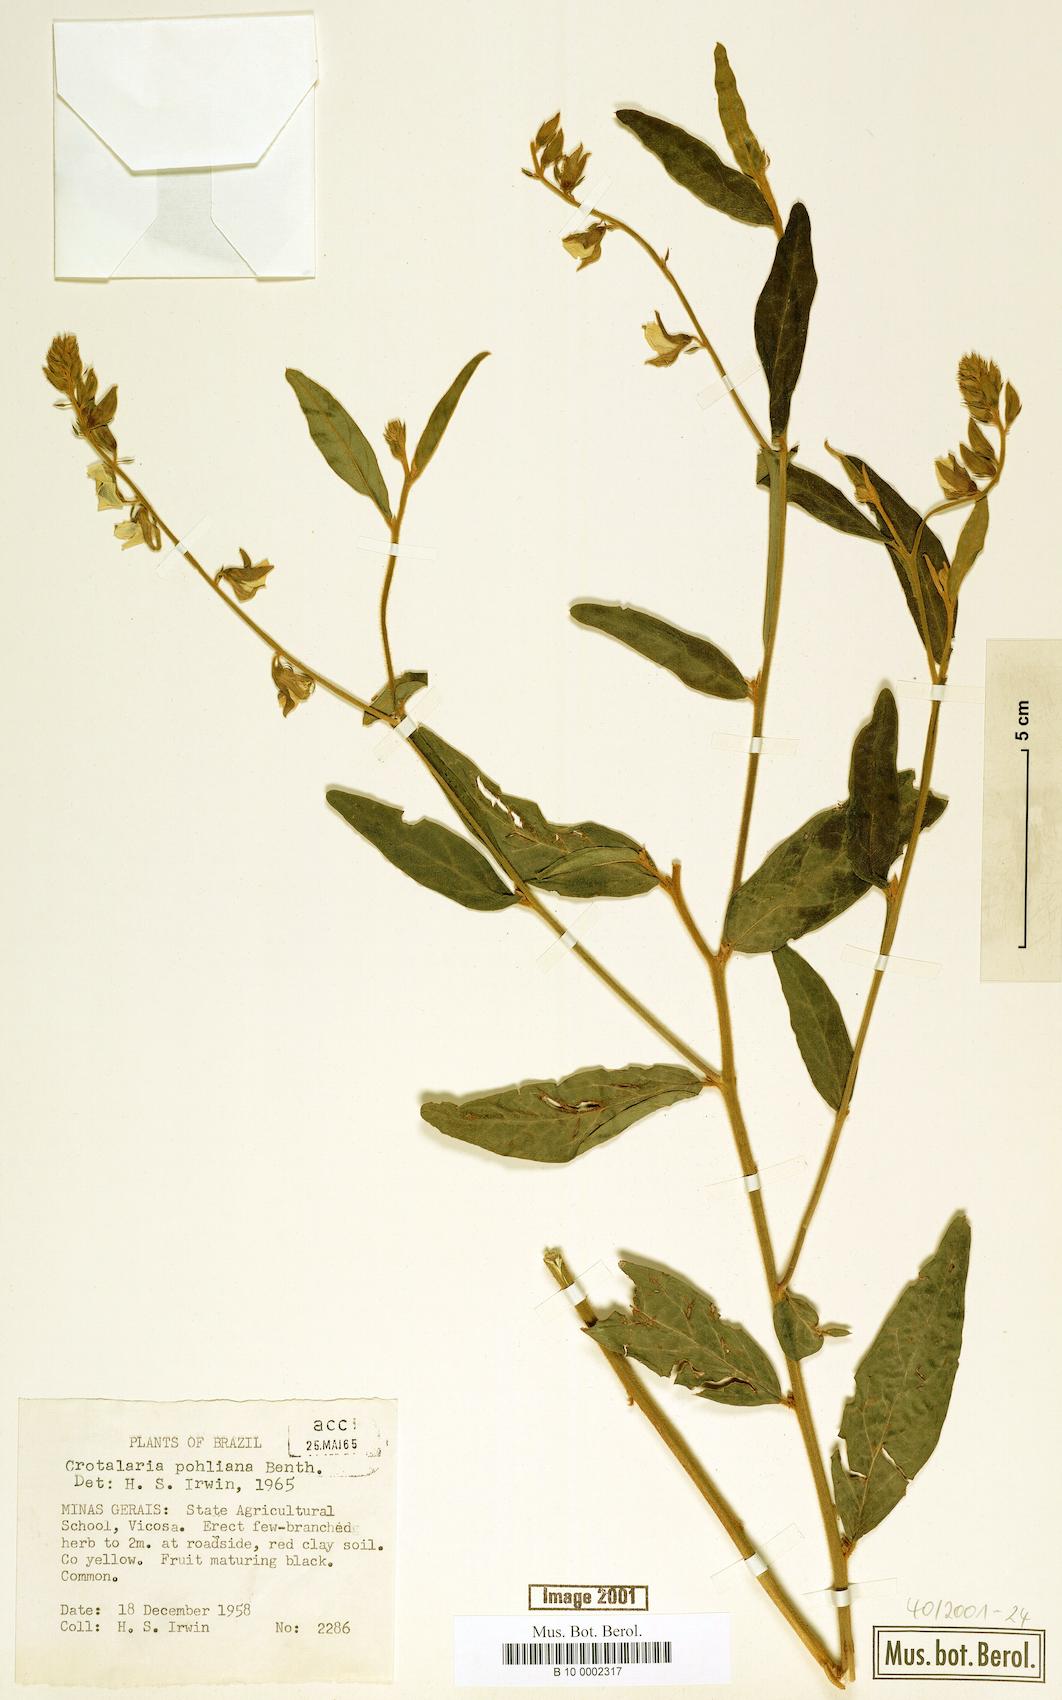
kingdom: Plantae
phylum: Tracheophyta
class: Magnoliopsida
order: Fabales
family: Fabaceae
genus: Crotalaria
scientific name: Crotalaria breviflora
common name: Short-flower crotalaria
